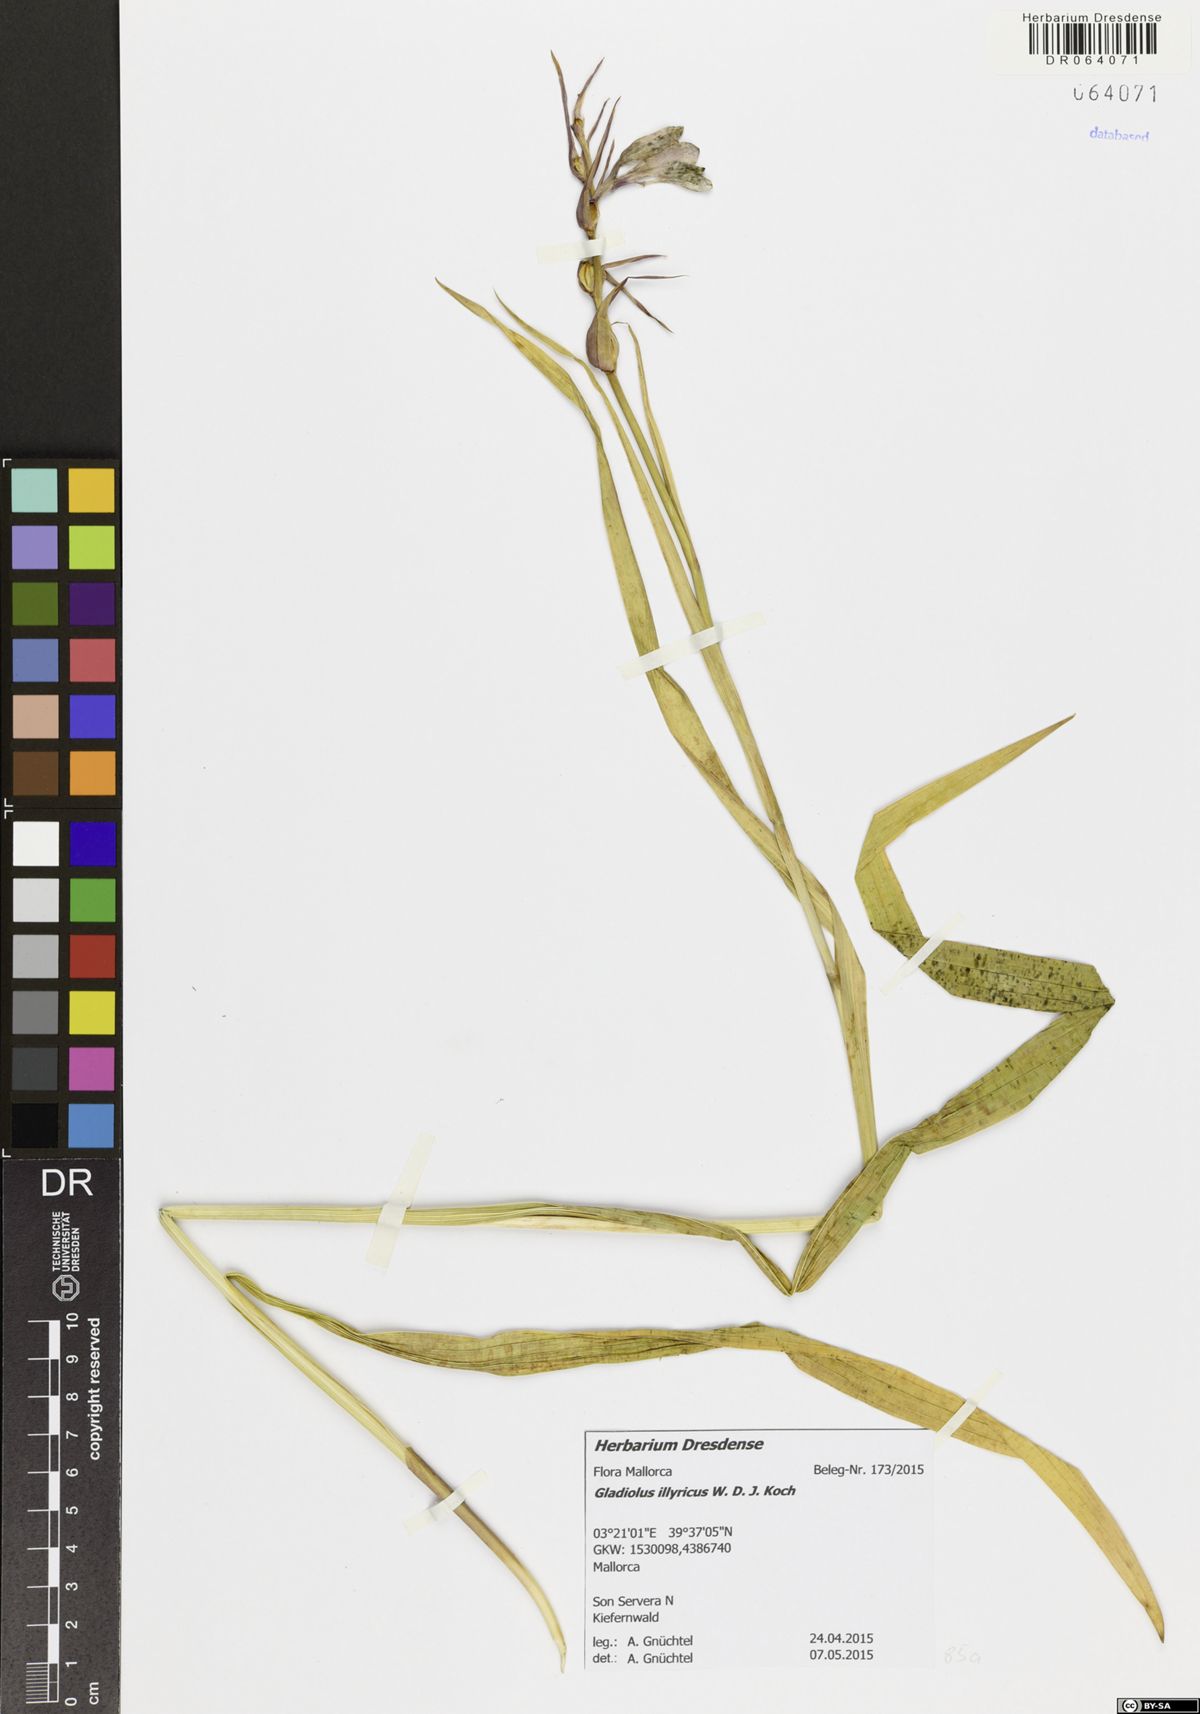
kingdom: Plantae
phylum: Tracheophyta
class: Liliopsida
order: Asparagales
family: Iridaceae
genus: Gladiolus
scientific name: Gladiolus illyricus
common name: Wild gladiolus
